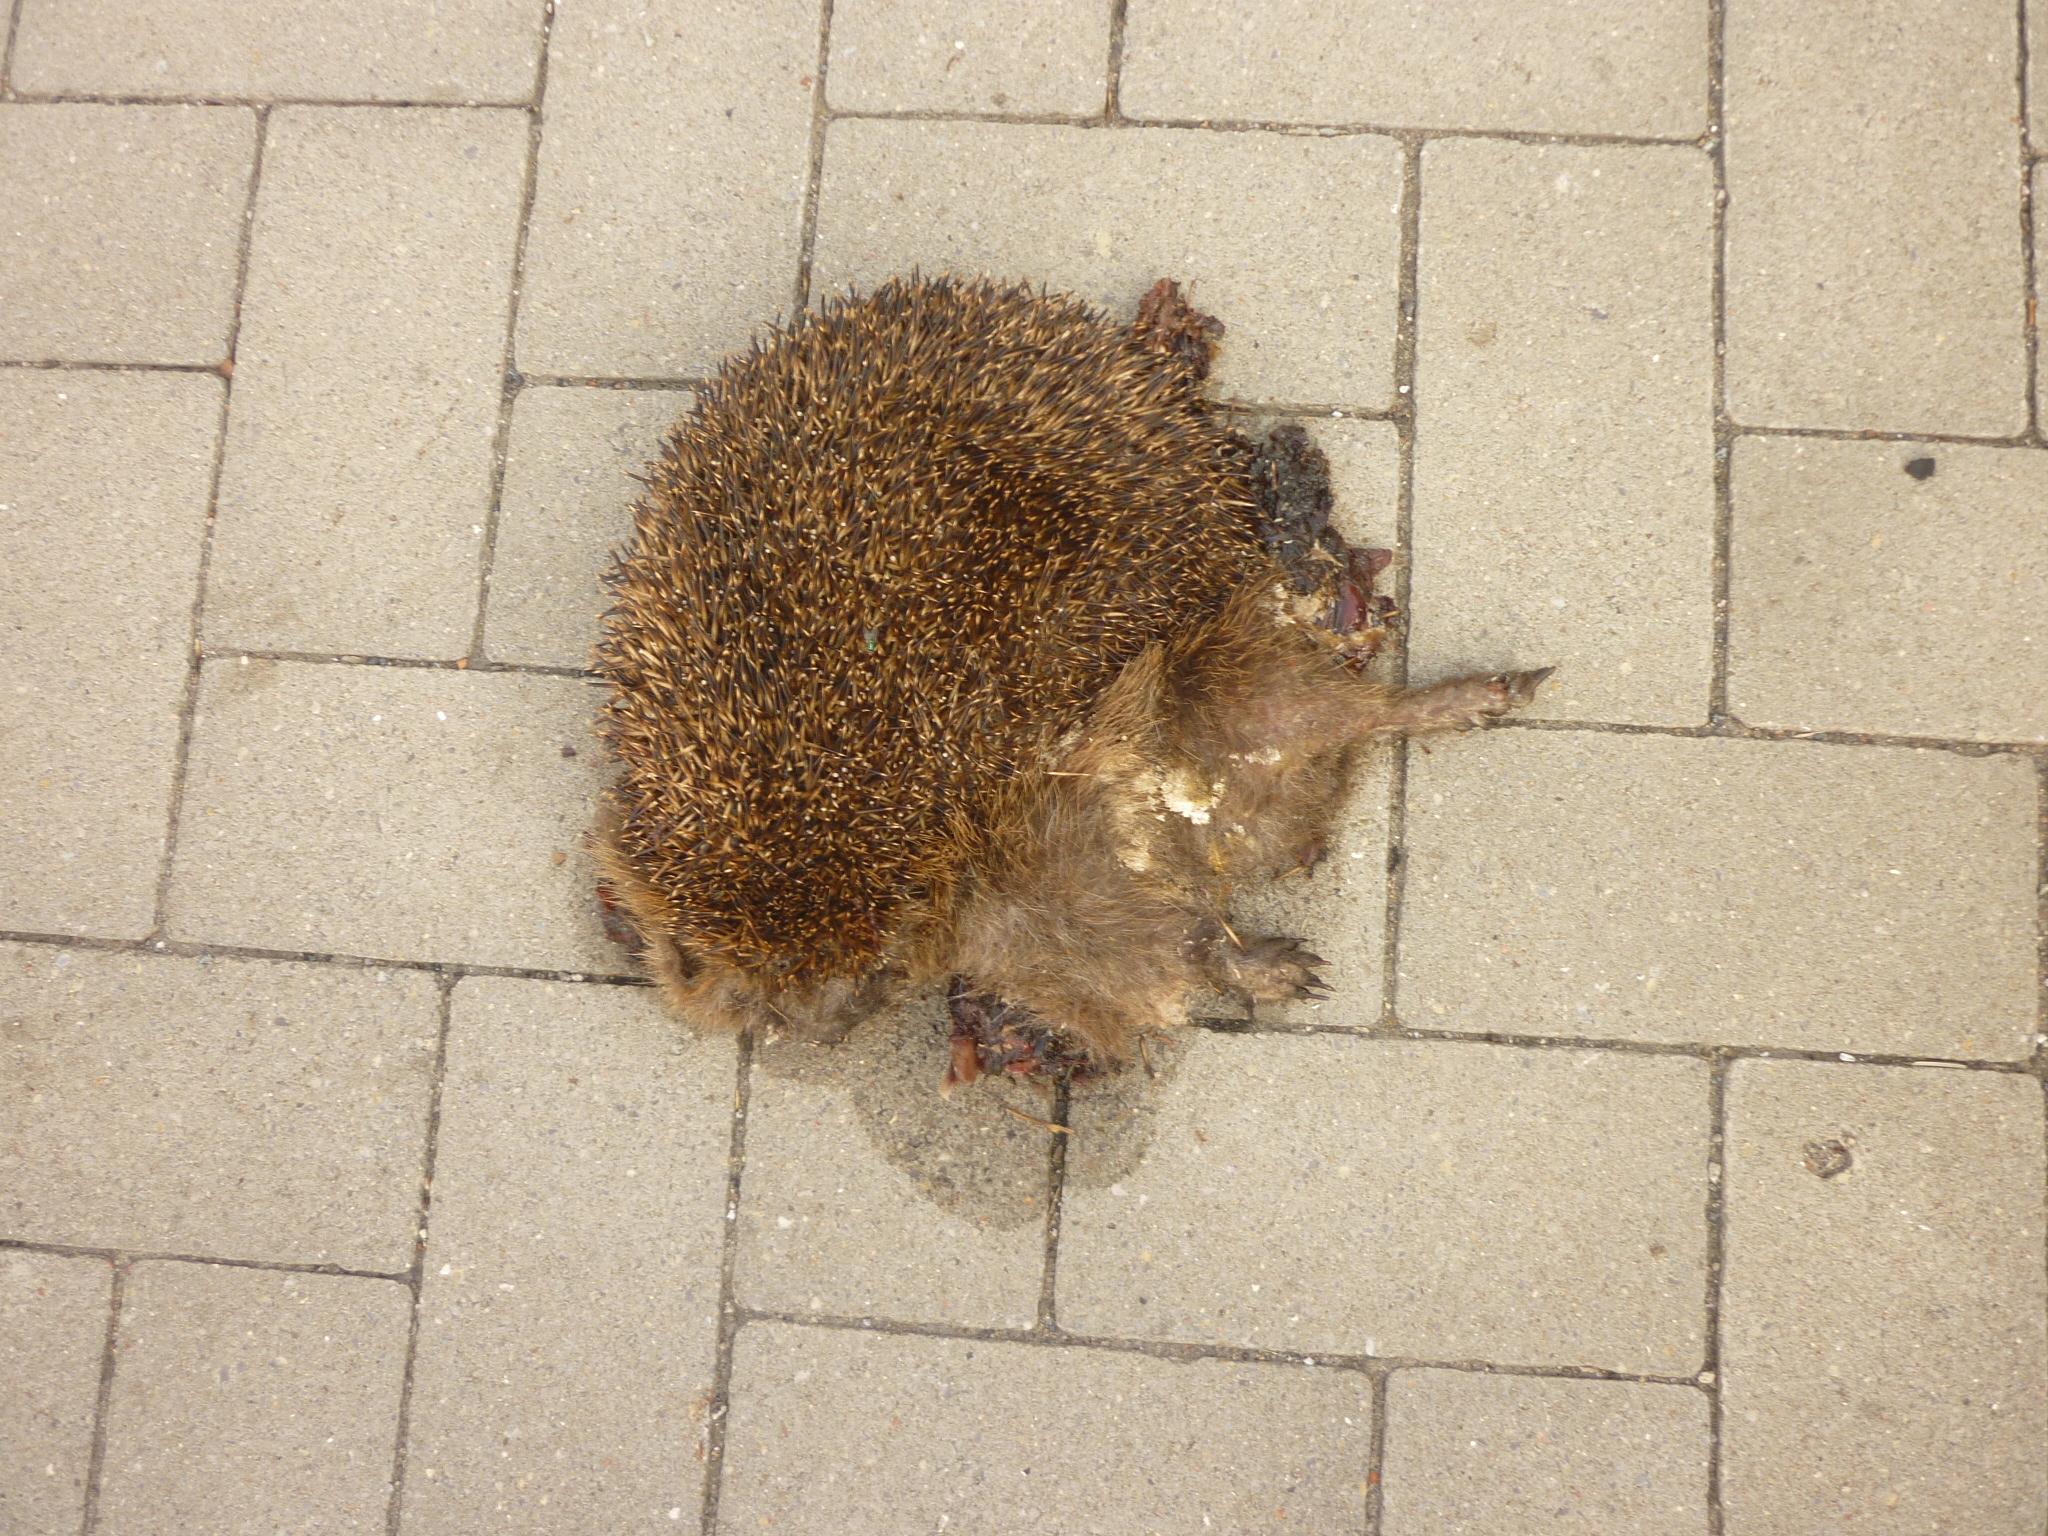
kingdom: Animalia
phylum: Chordata
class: Mammalia
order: Erinaceomorpha
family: Erinaceidae
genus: Erinaceus
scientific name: Erinaceus
